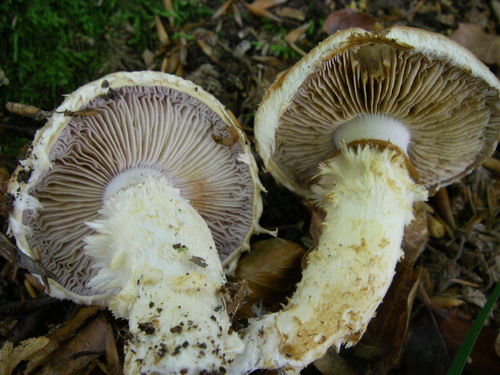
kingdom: Fungi
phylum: Basidiomycota
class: Agaricomycetes
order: Agaricales
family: Cortinariaceae
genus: Phlegmacium
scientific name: Phlegmacium vulpinum
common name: ringbæltet slørhat
